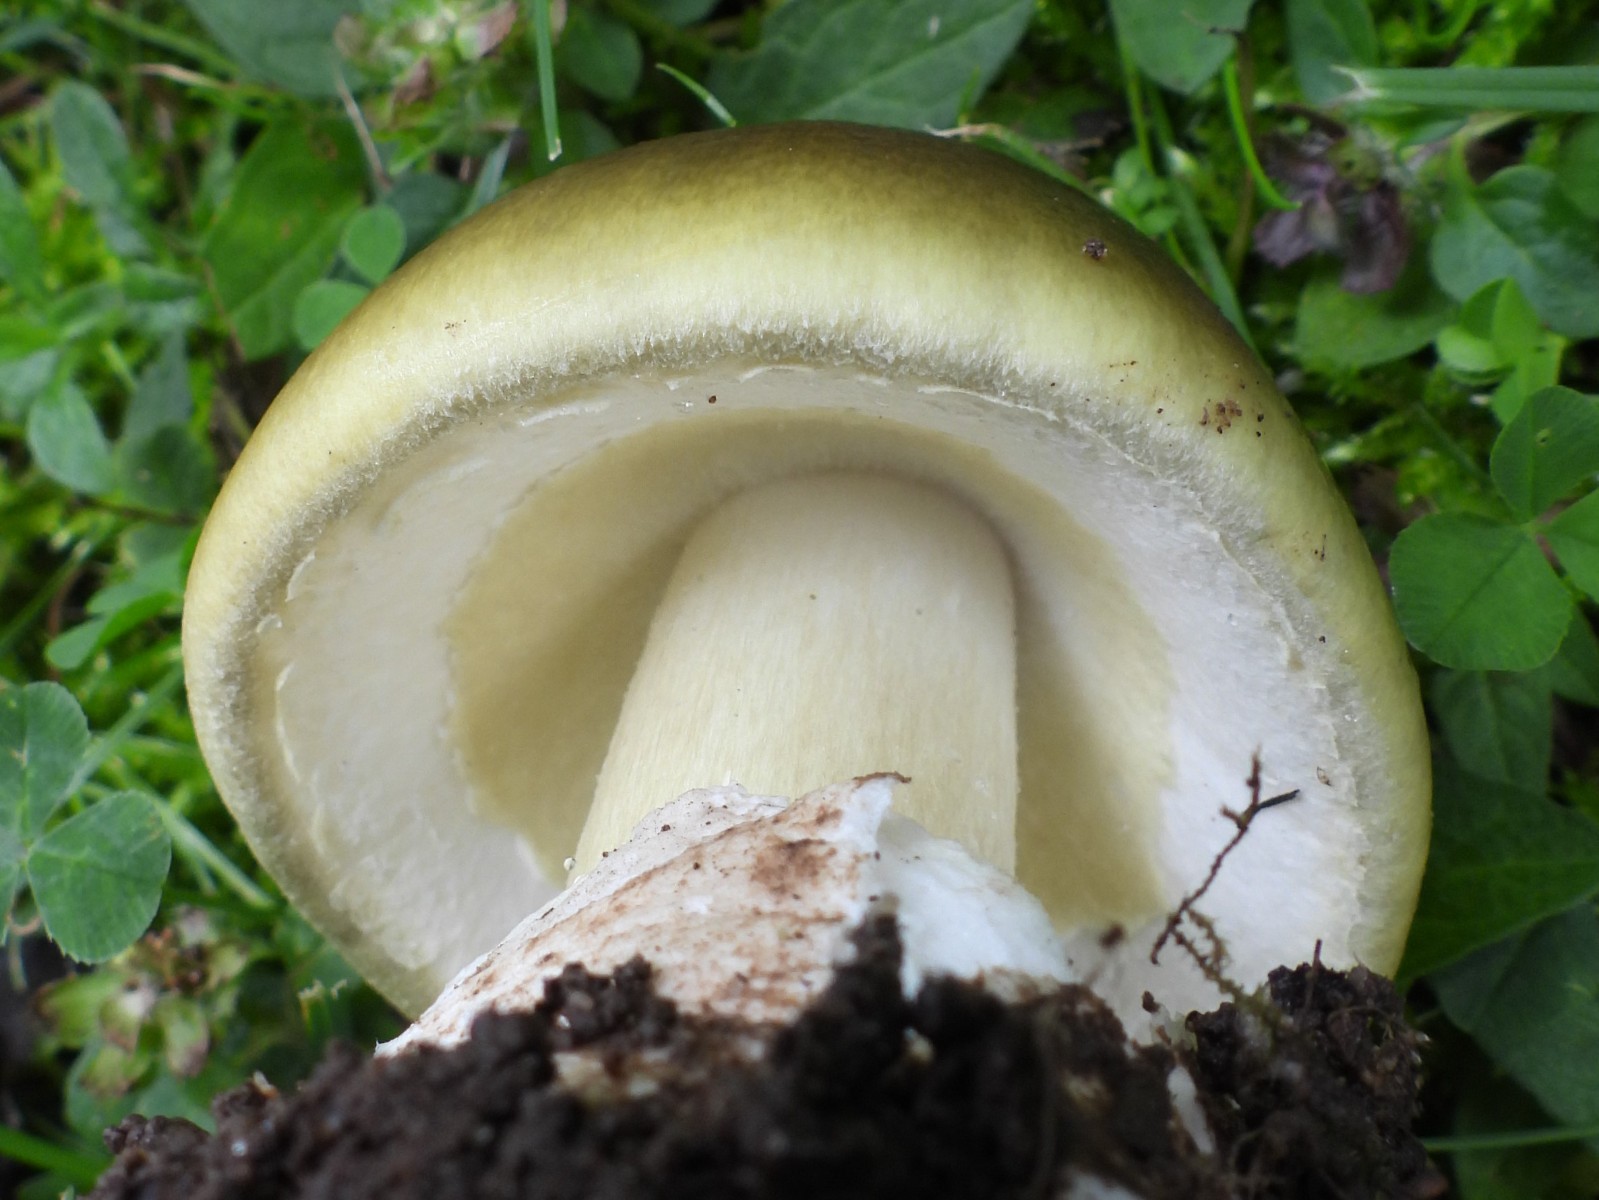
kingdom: Fungi
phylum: Basidiomycota
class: Agaricomycetes
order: Agaricales
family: Amanitaceae
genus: Amanita
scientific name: Amanita phalloides
